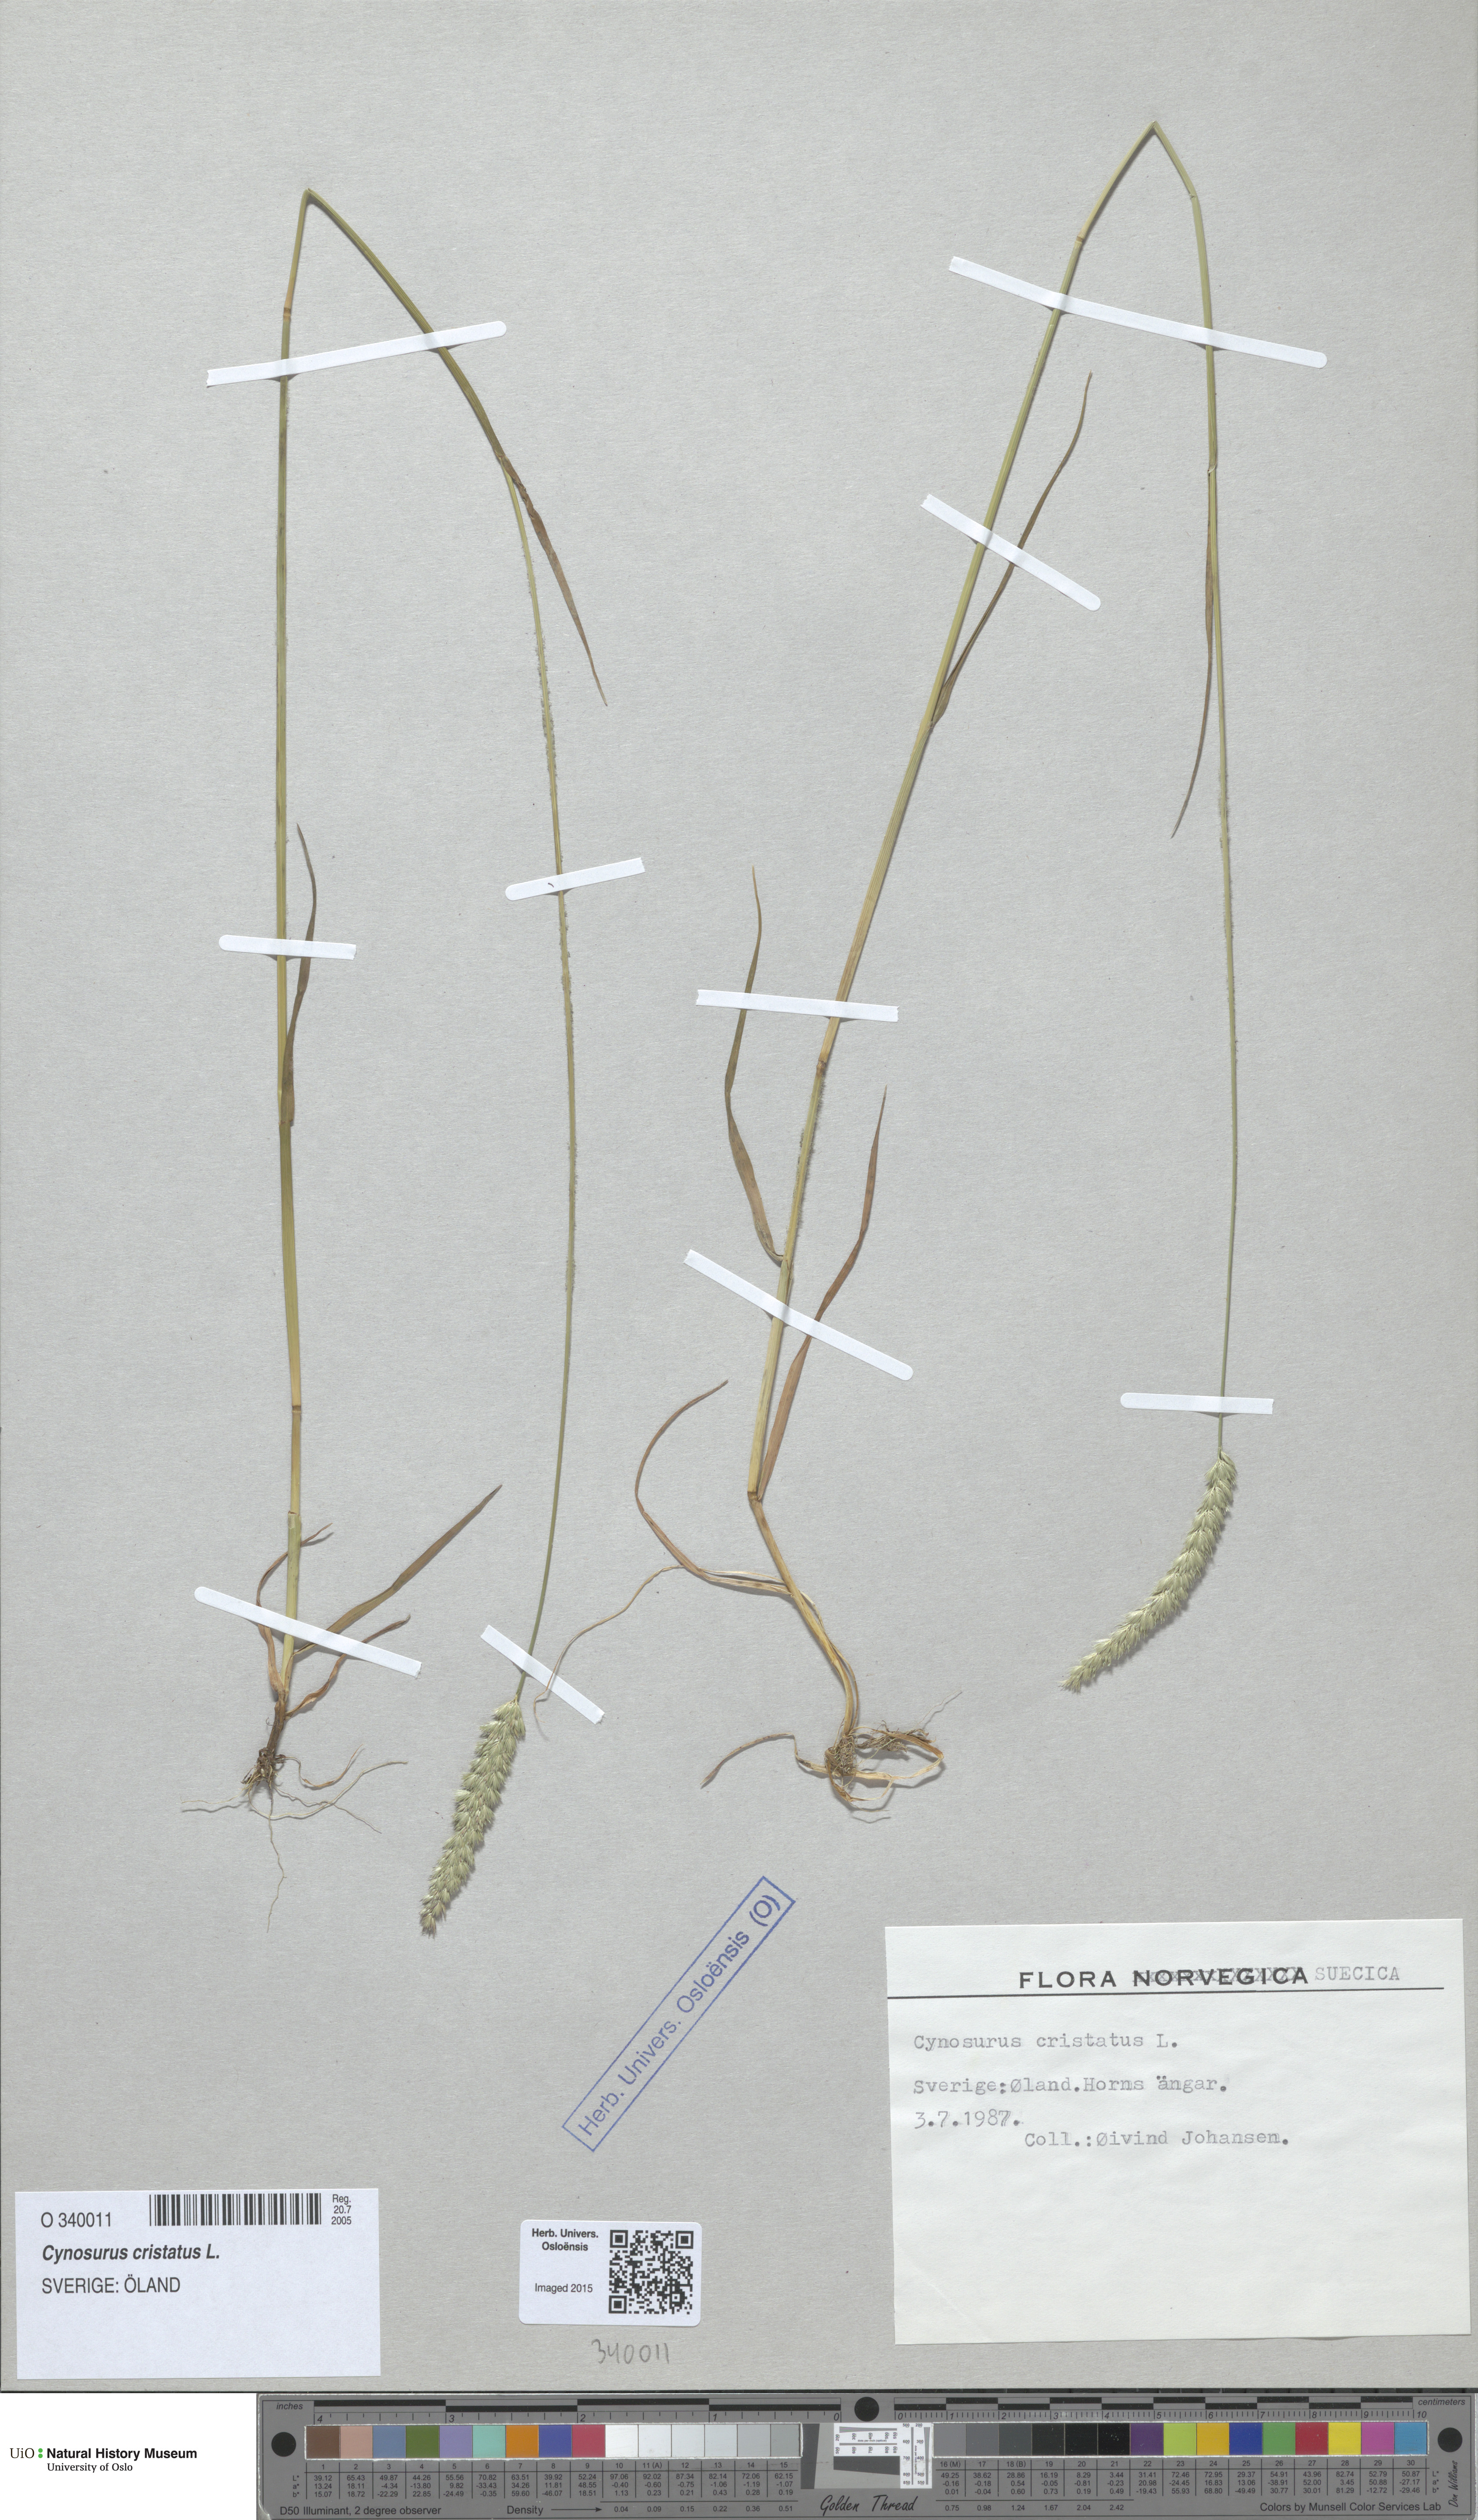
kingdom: Plantae
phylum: Tracheophyta
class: Liliopsida
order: Poales
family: Poaceae
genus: Cynosurus
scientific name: Cynosurus cristatus
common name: Crested dog's-tail
